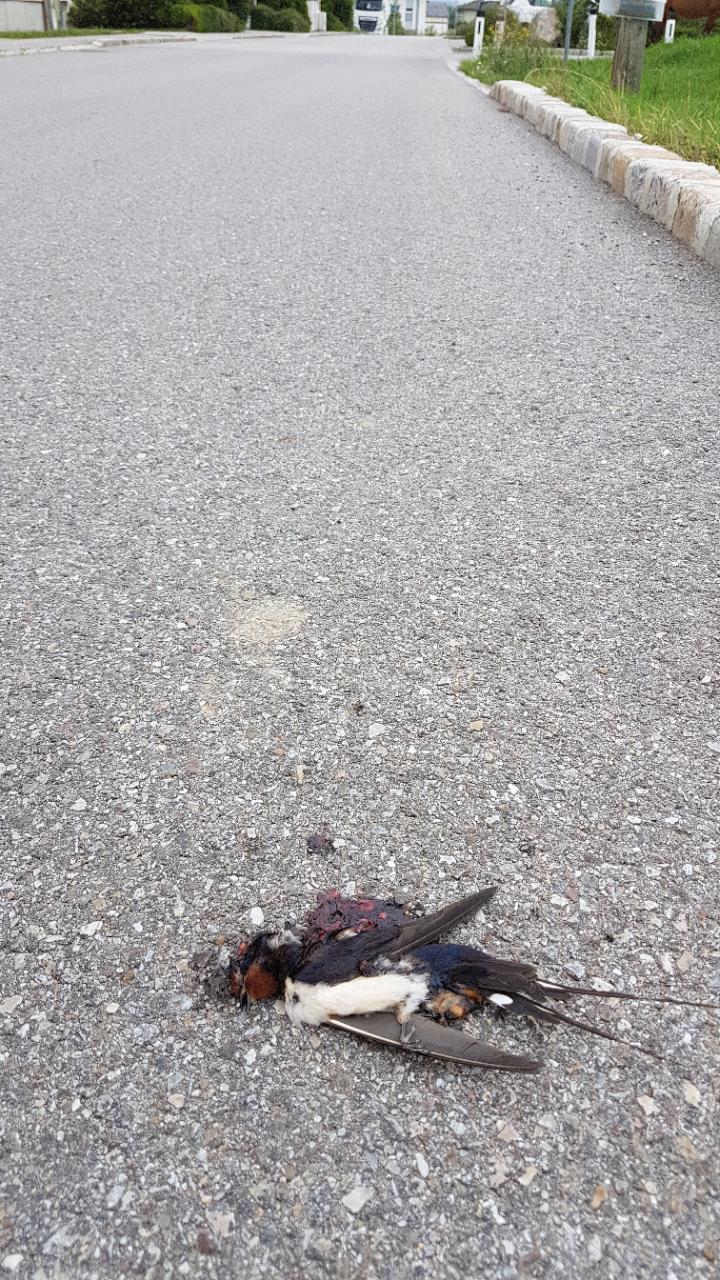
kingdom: Animalia
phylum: Chordata
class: Aves
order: Passeriformes
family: Hirundinidae
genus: Hirundo
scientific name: Hirundo rustica
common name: Barn swallow
